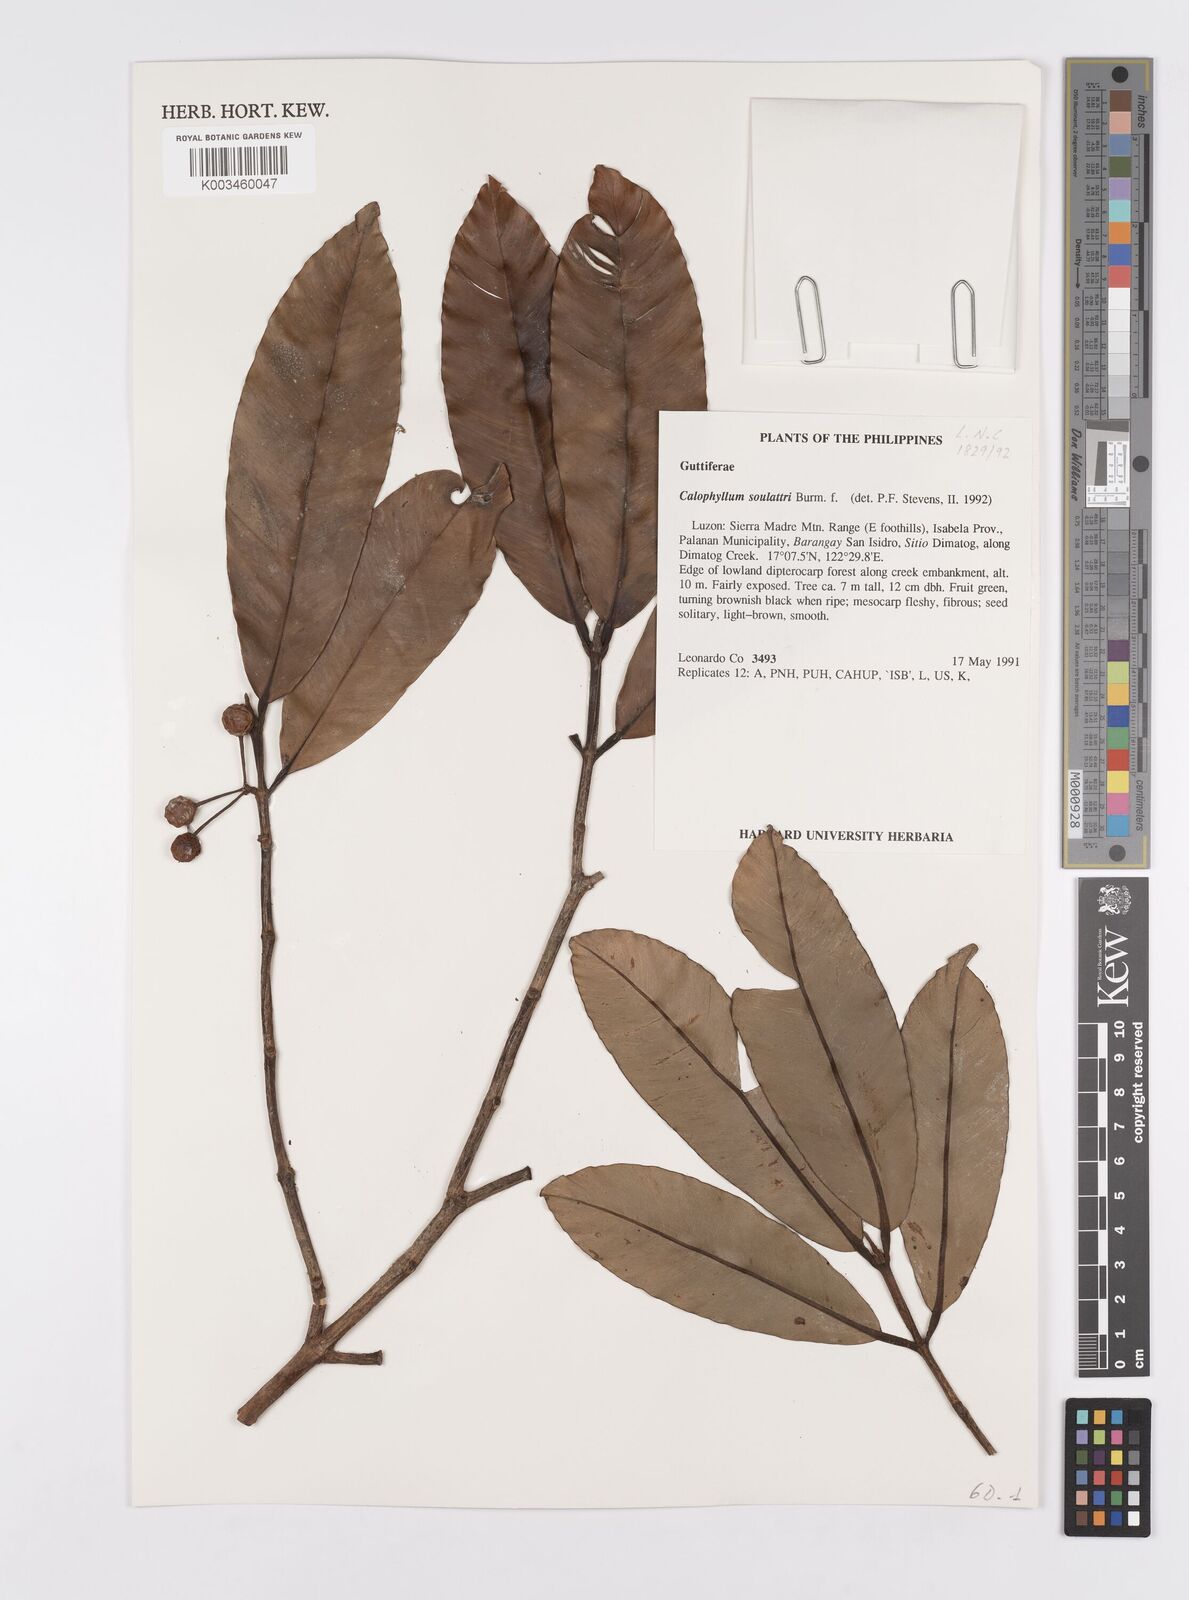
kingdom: Plantae
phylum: Tracheophyta
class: Magnoliopsida
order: Malpighiales
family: Calophyllaceae
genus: Calophyllum
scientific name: Calophyllum soulattri
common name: Bitangoor boonot
